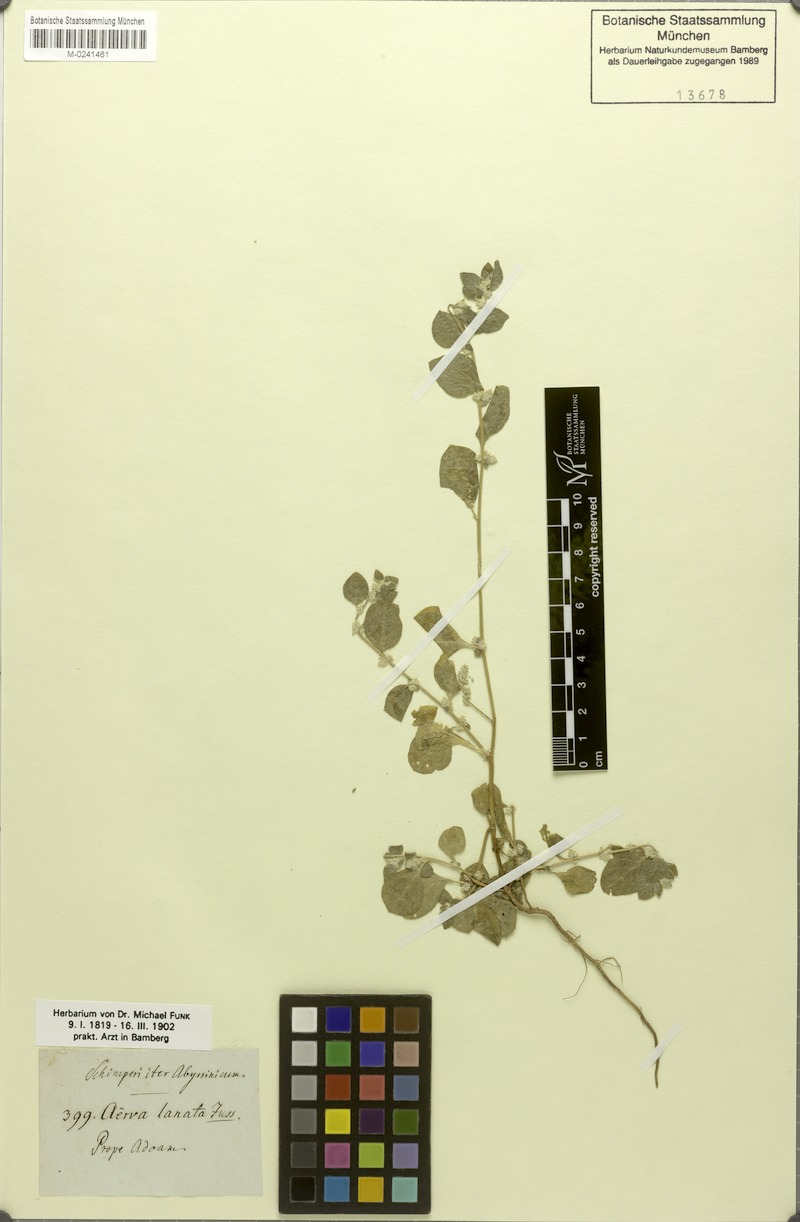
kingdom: Plantae
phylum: Tracheophyta
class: Magnoliopsida
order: Caryophyllales
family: Amaranthaceae
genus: Ouret
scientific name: Ouret lanata
